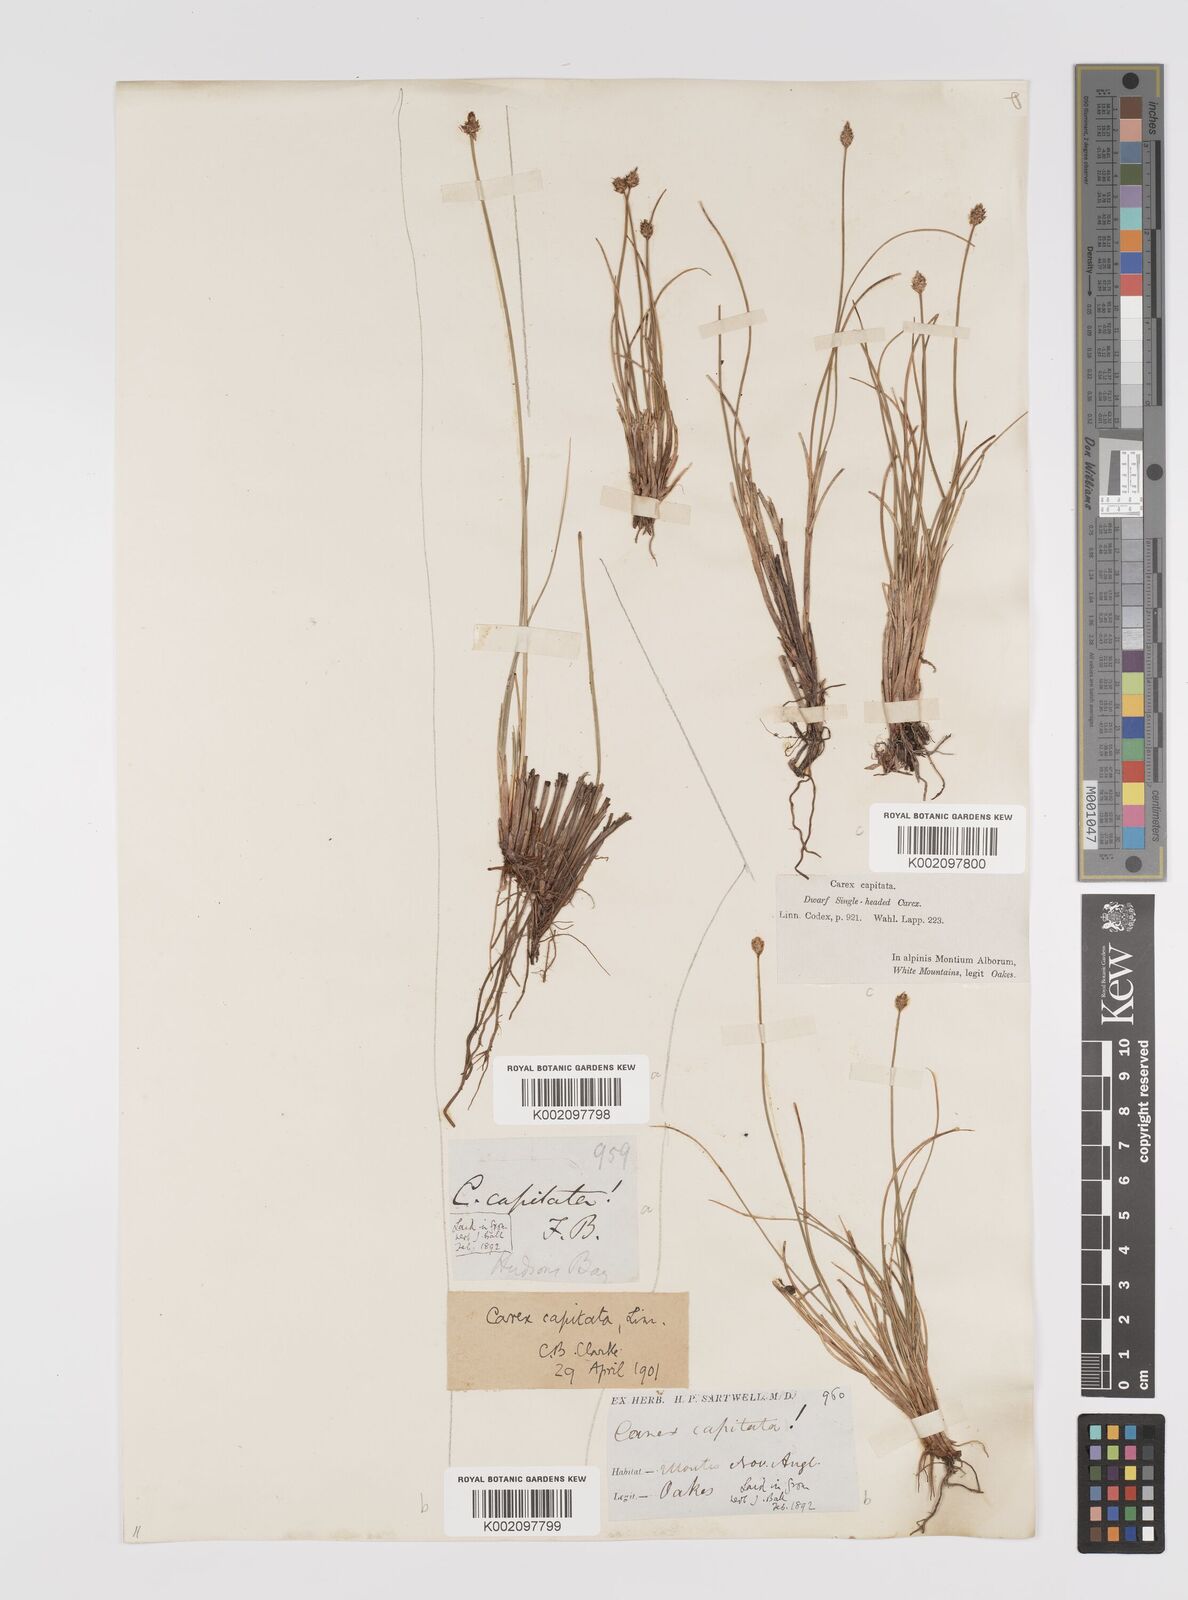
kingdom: Plantae
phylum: Tracheophyta
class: Liliopsida
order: Poales
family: Cyperaceae
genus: Carex
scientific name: Carex capitata
